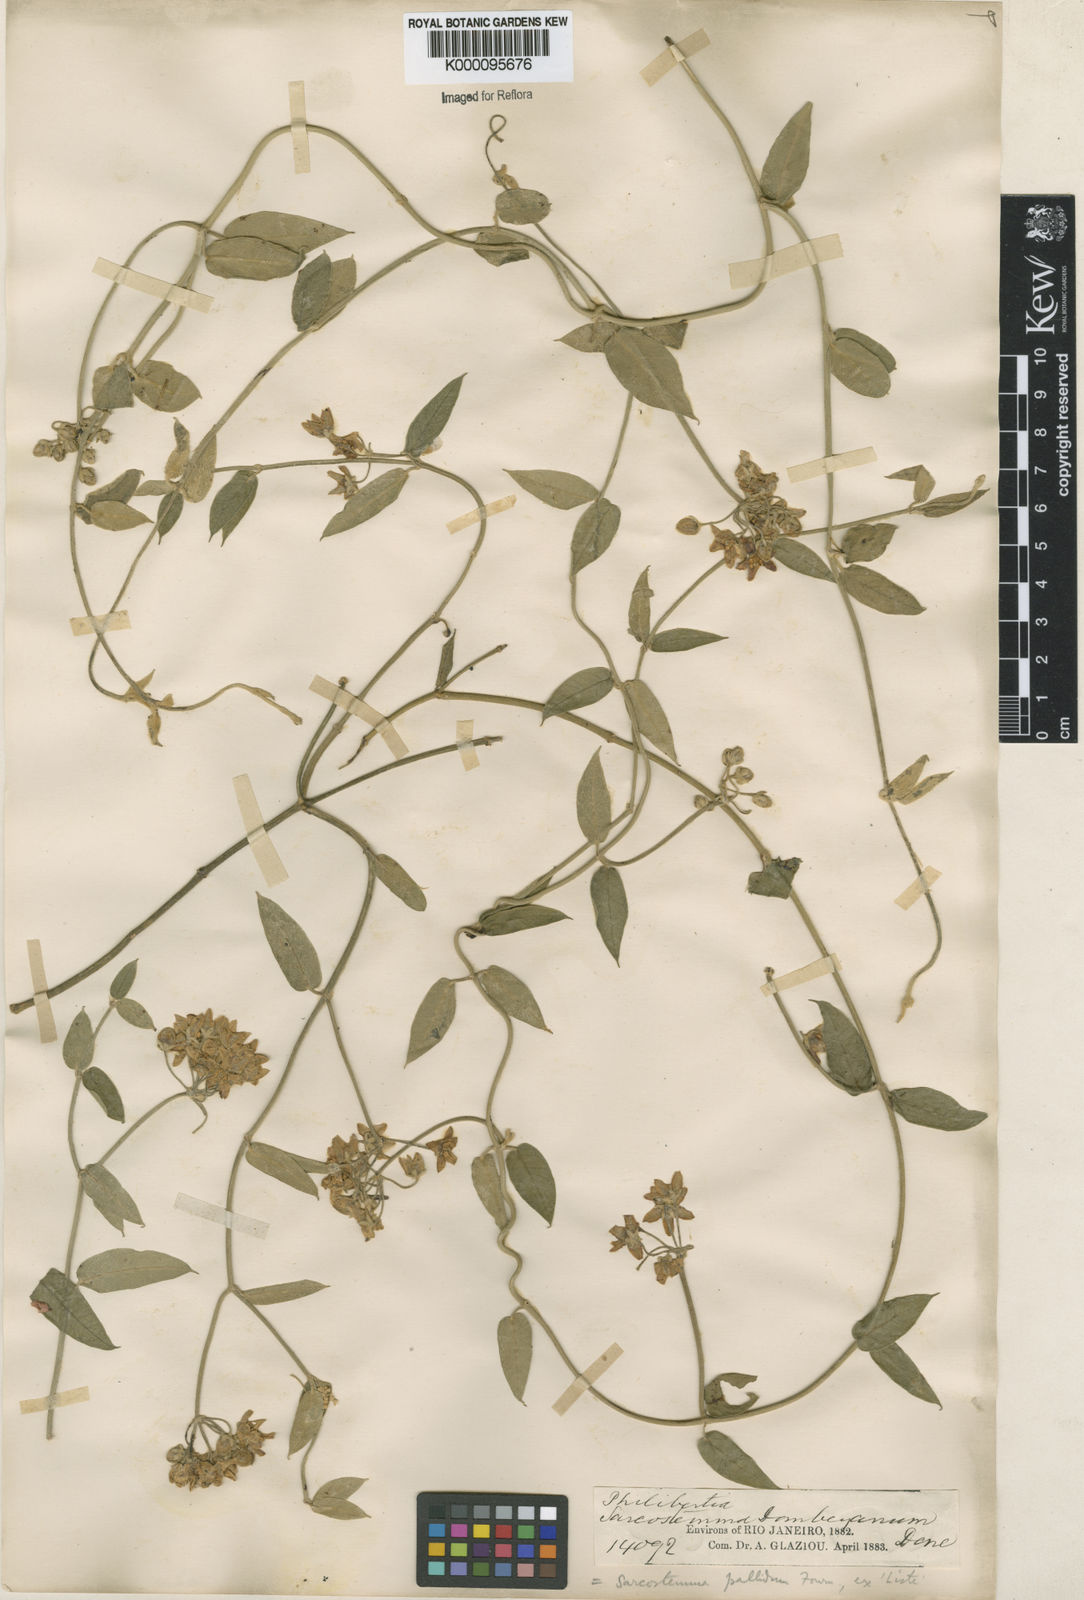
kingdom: Plantae
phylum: Tracheophyta
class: Magnoliopsida
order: Gentianales
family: Apocynaceae
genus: Funastrum
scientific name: Funastrum clausum
